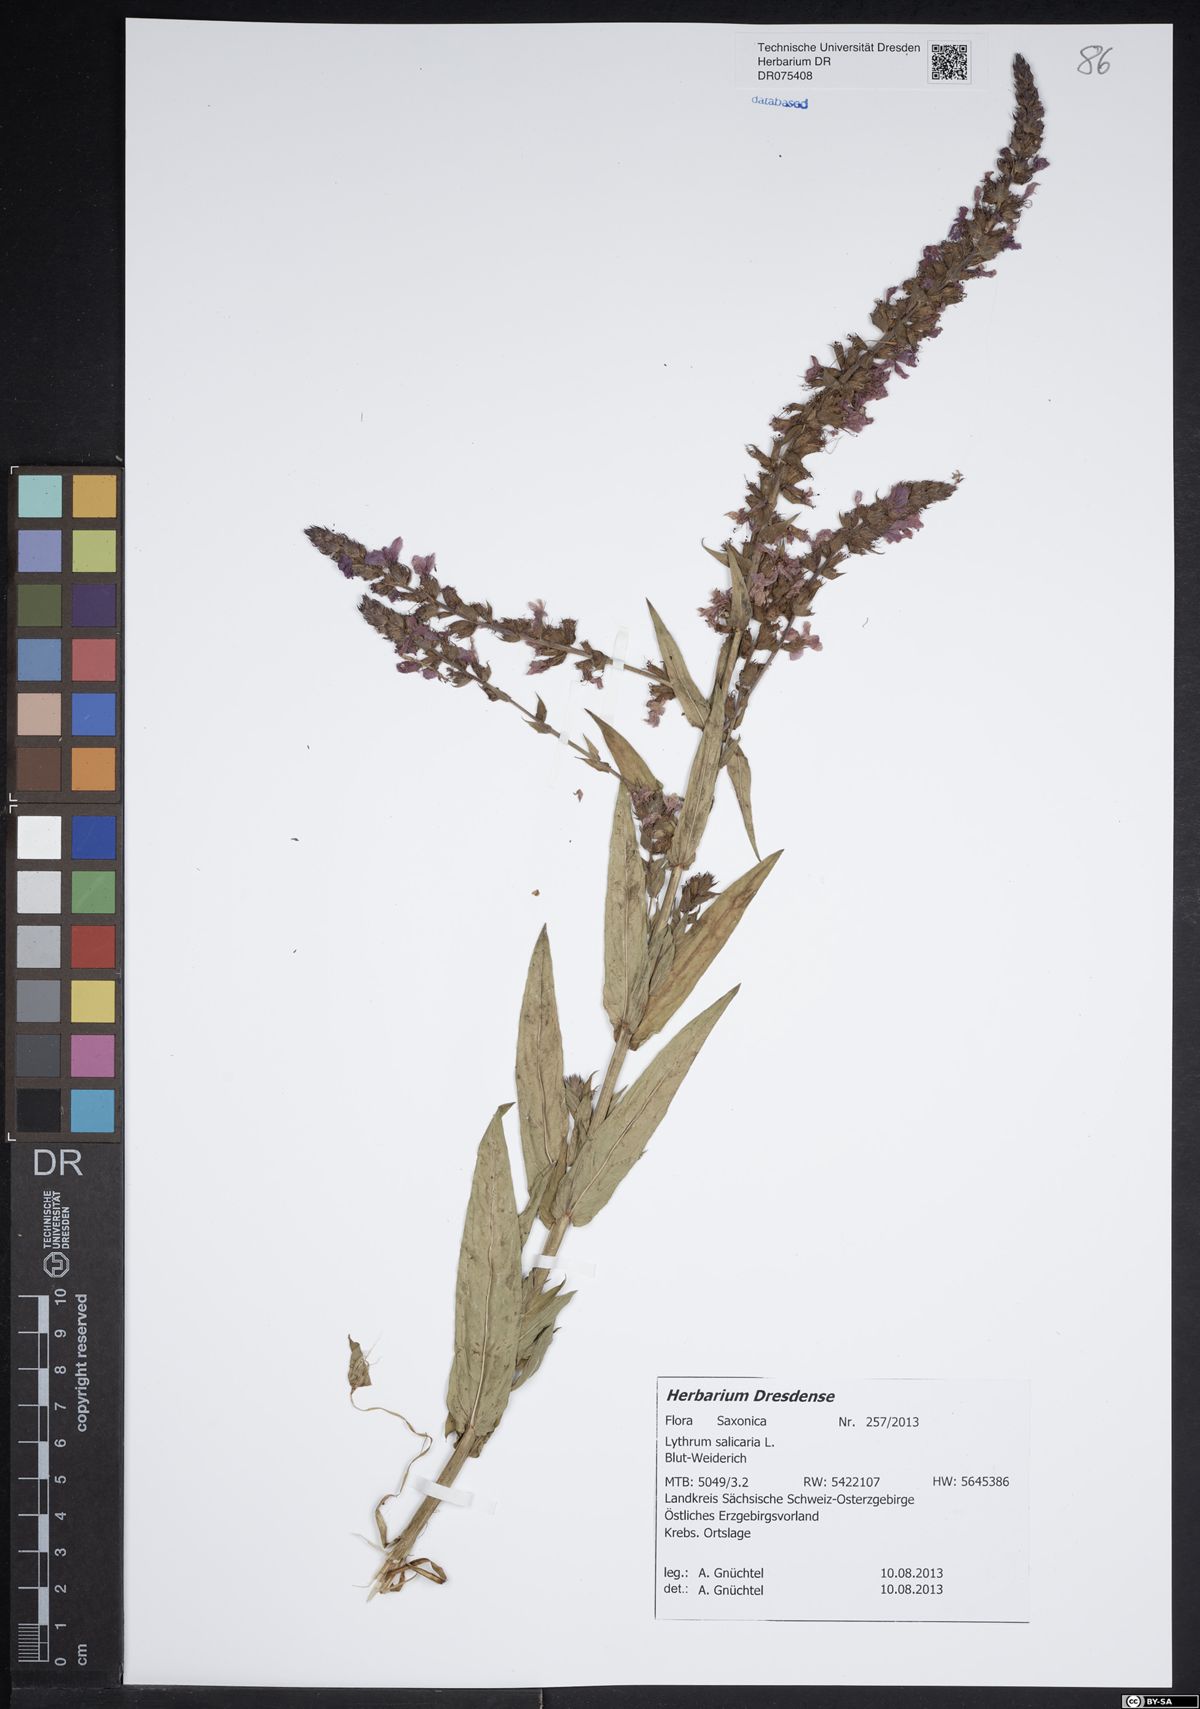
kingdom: Plantae
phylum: Tracheophyta
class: Magnoliopsida
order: Myrtales
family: Lythraceae
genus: Lythrum
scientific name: Lythrum salicaria
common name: Purple loosestrife
